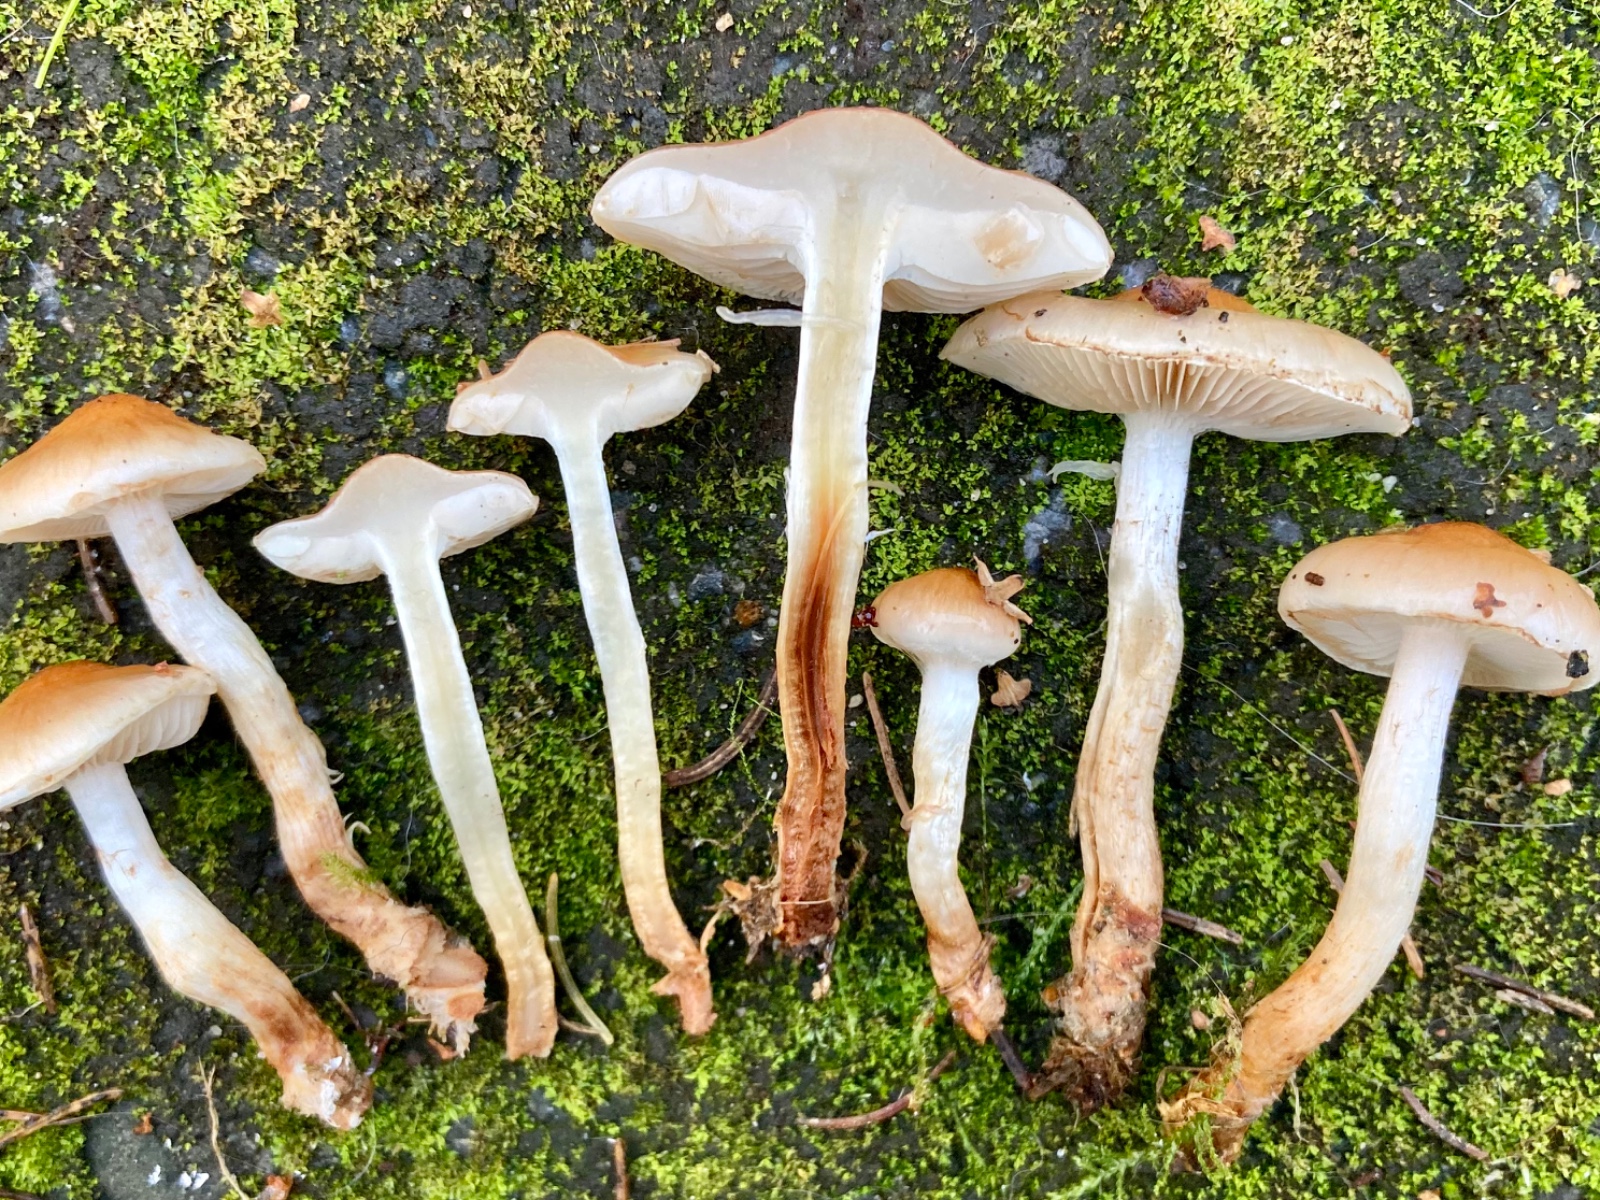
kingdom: Fungi
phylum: Basidiomycota
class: Agaricomycetes
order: Agaricales
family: Hymenogastraceae
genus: Hebeloma
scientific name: Hebeloma
